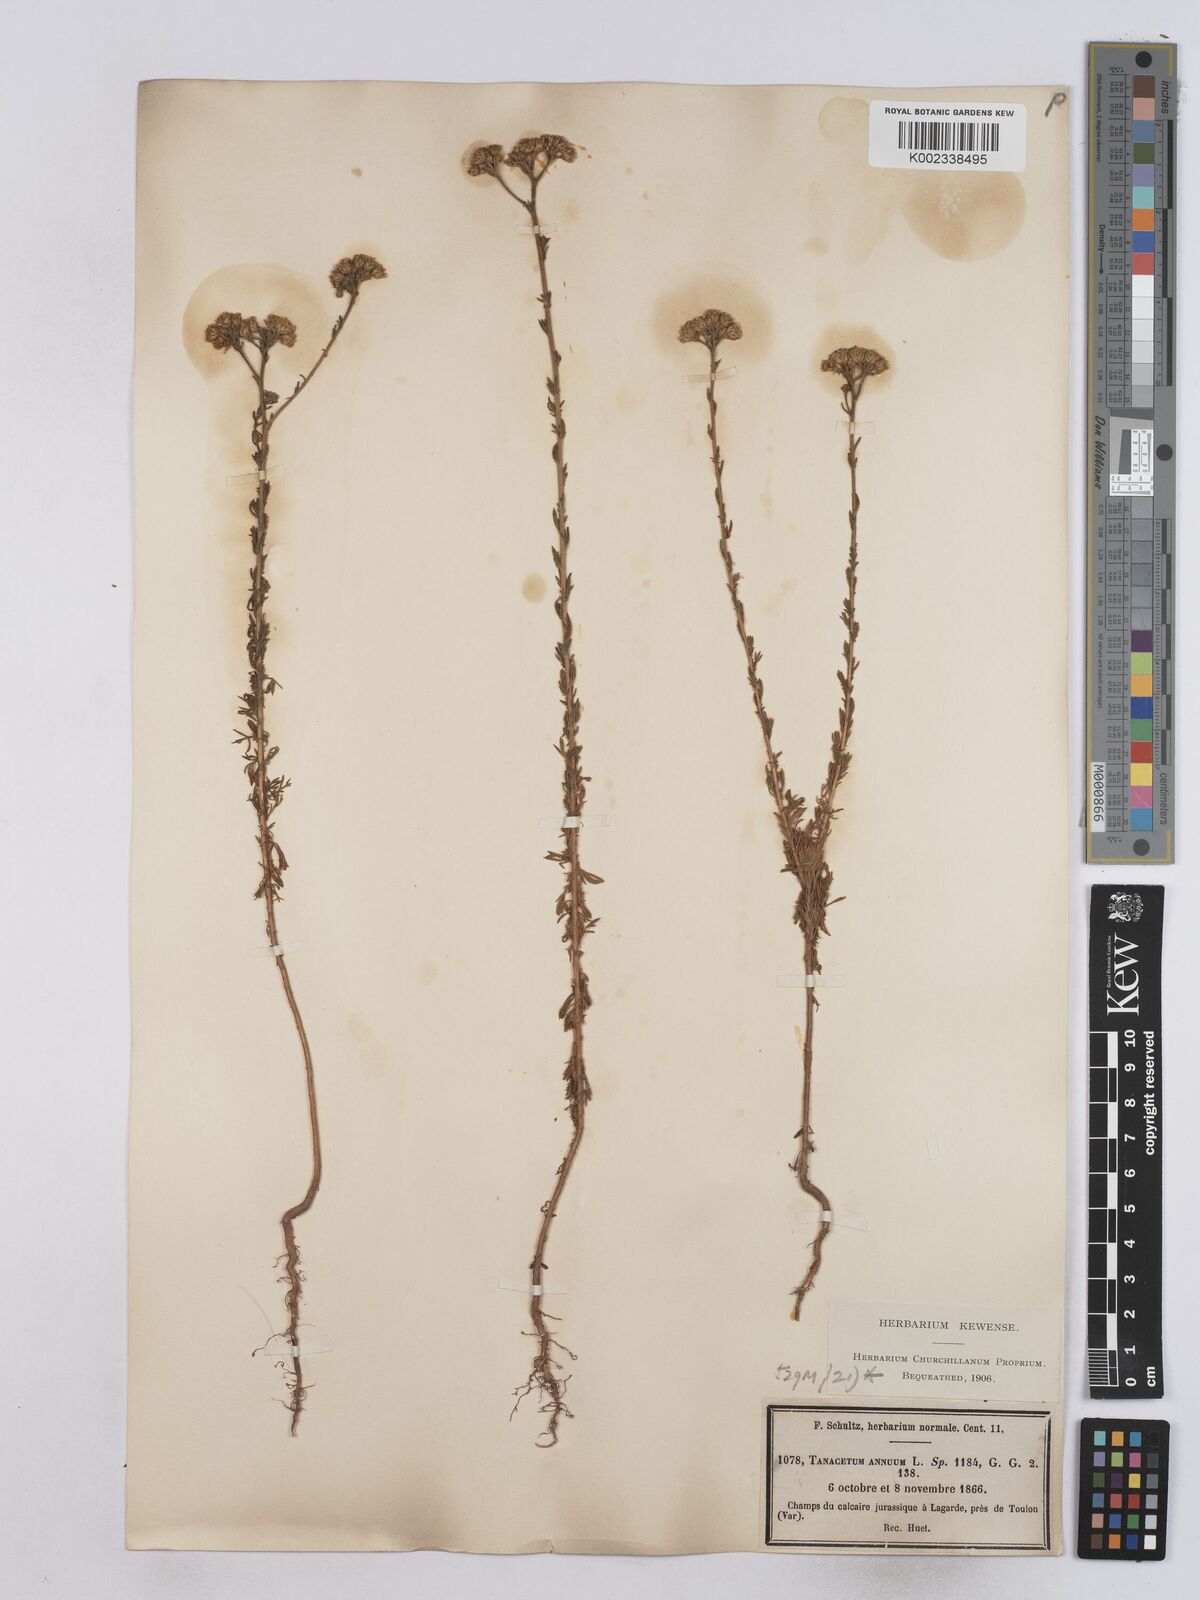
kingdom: Plantae
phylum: Tracheophyta
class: Magnoliopsida
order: Asterales
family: Asteraceae
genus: Vogtia
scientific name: Vogtia annua
